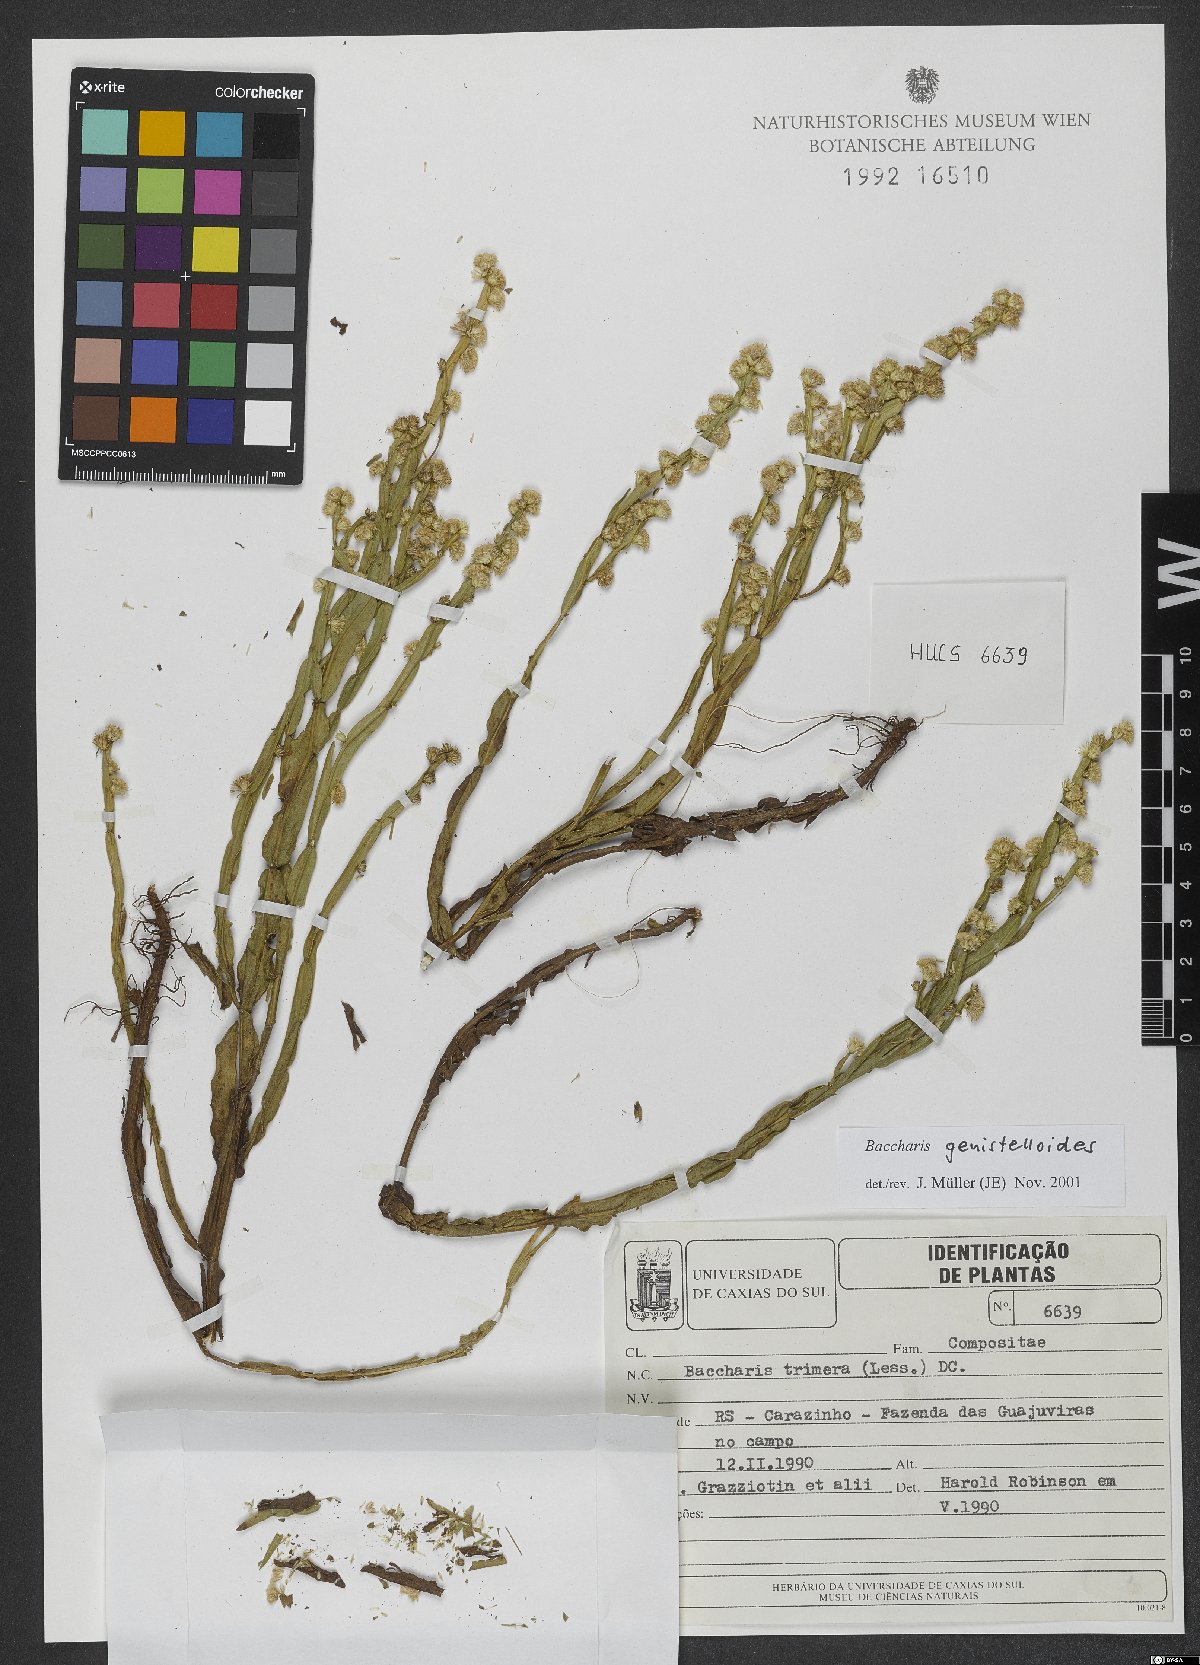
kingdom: Plantae
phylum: Tracheophyta
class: Magnoliopsida
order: Asterales
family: Asteraceae
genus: Baccharis
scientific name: Baccharis genistelloides
